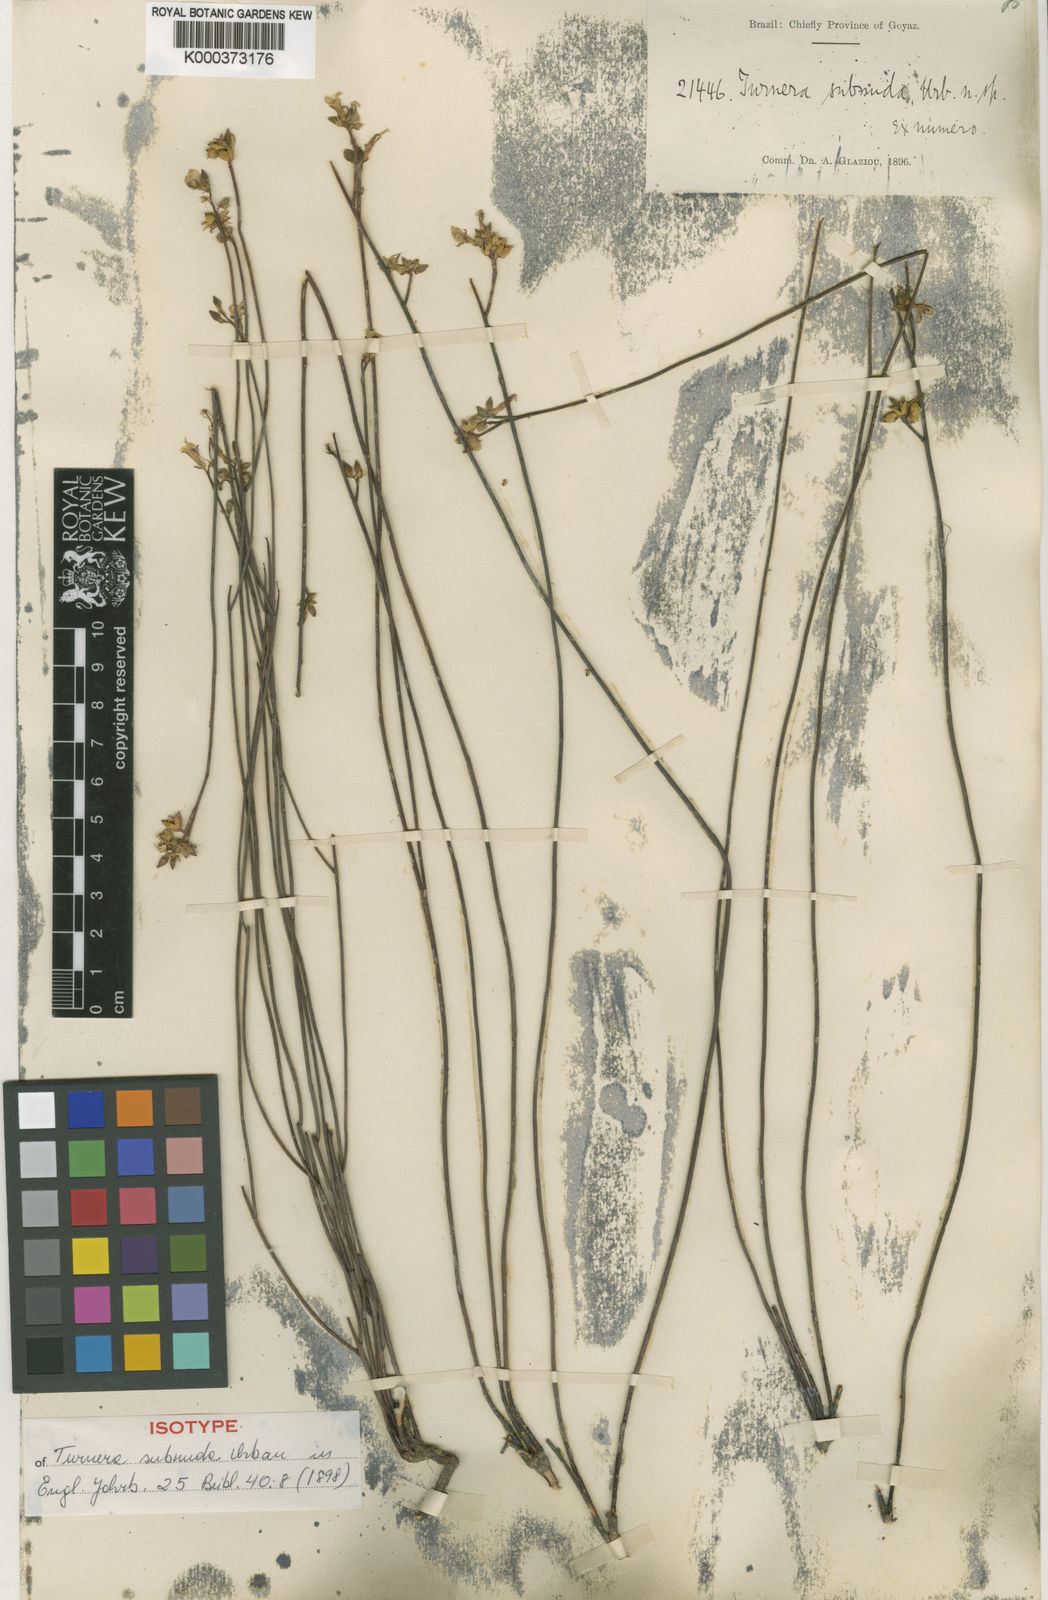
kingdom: Plantae
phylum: Tracheophyta
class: Magnoliopsida
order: Malpighiales
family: Turneraceae
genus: Turnera
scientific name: Turnera subnuda
